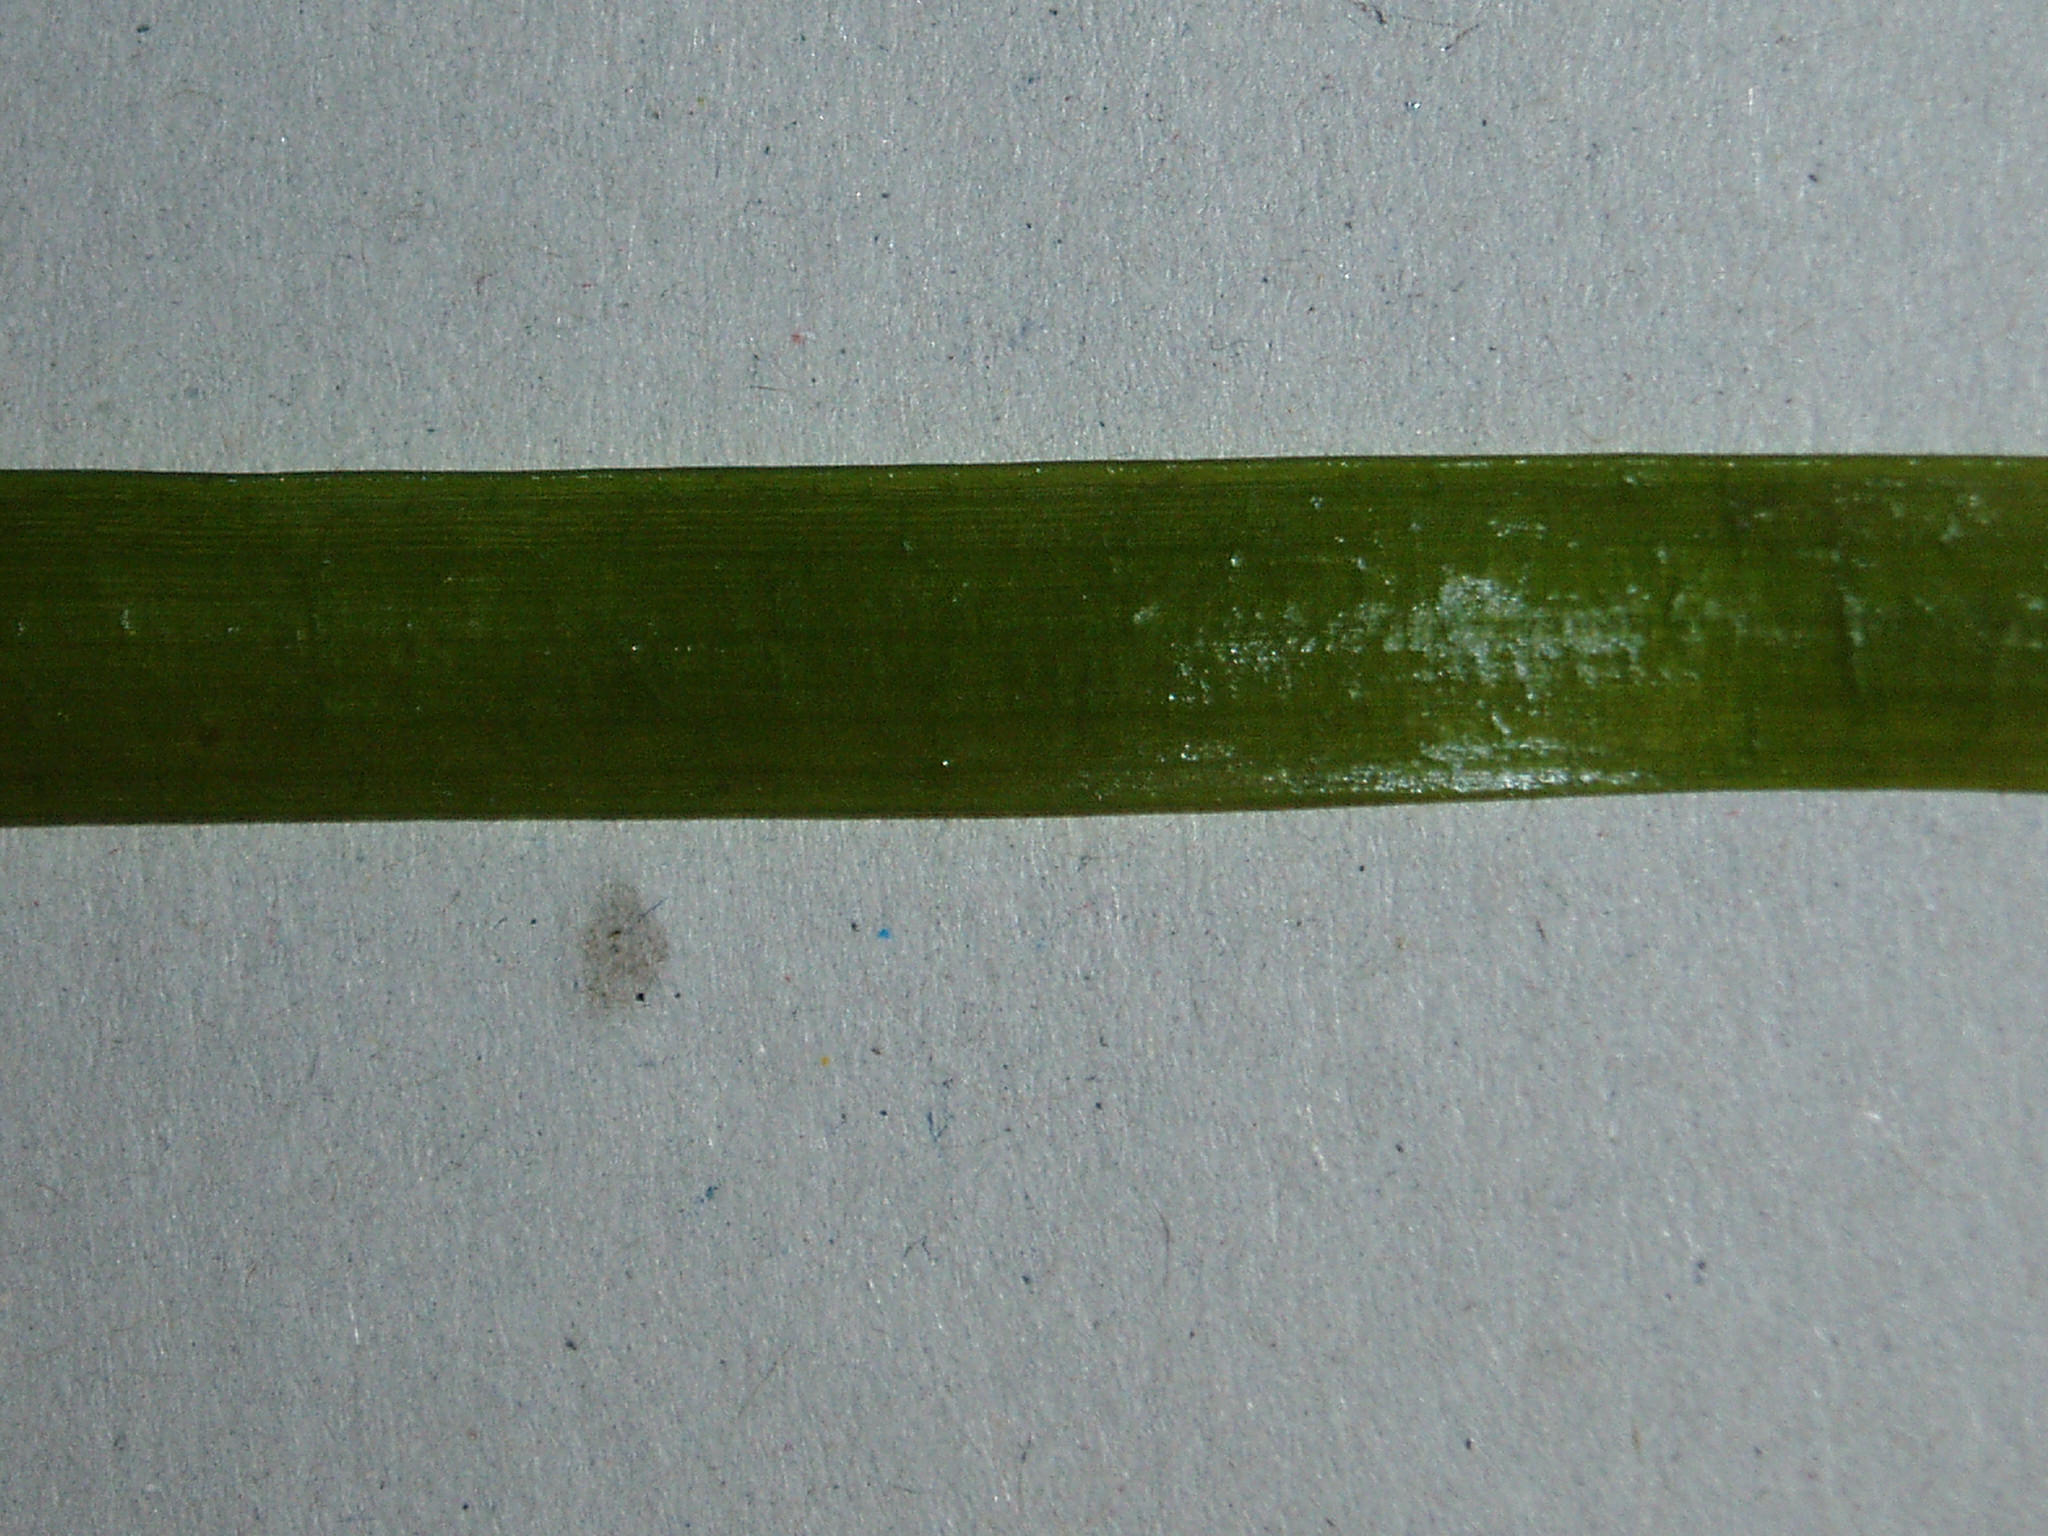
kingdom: Plantae
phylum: Tracheophyta
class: Liliopsida
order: Alismatales
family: Hydrocharitaceae
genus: Vallisneria
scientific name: Vallisneria americana
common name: American eelgrass
